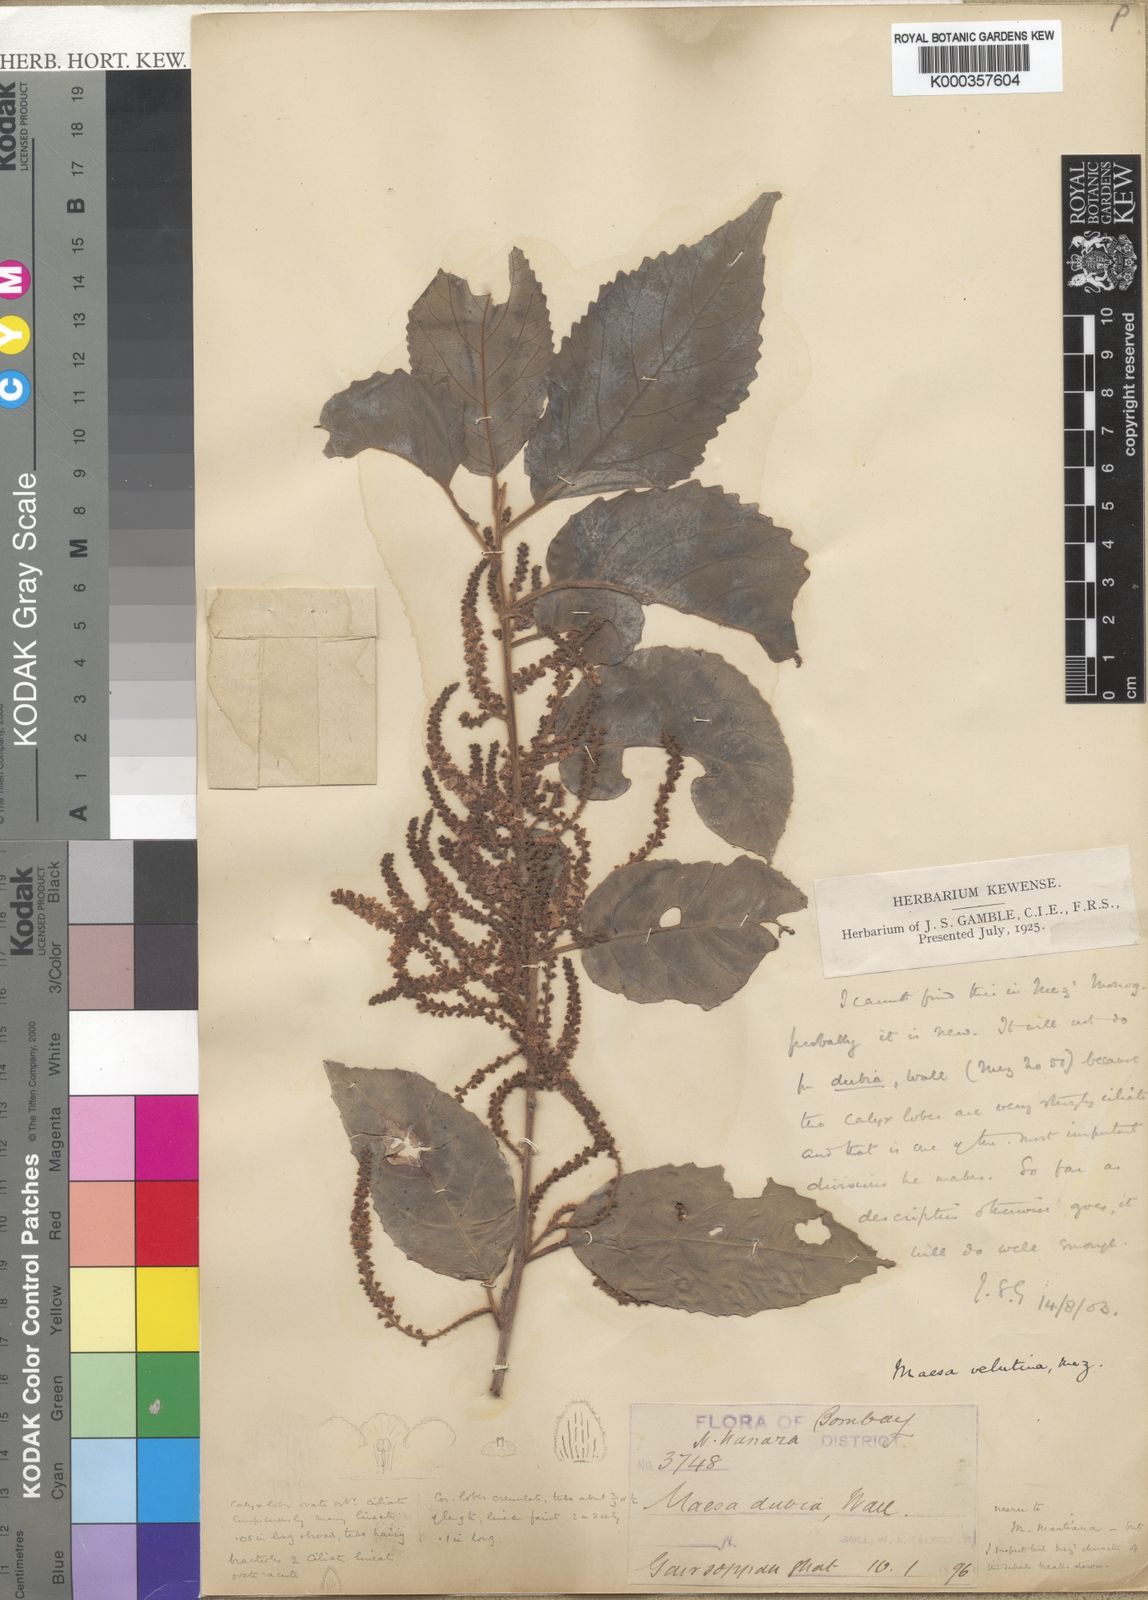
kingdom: Plantae
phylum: Tracheophyta
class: Magnoliopsida
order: Ericales
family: Primulaceae
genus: Maesa
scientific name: Maesa
